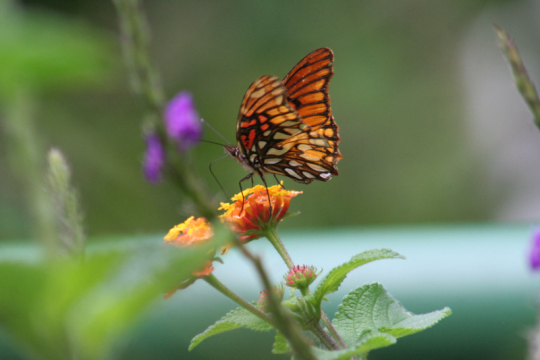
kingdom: Animalia
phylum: Arthropoda
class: Insecta
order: Lepidoptera
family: Nymphalidae
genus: Dione
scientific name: Dione moneta
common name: Mexican Silverspot
